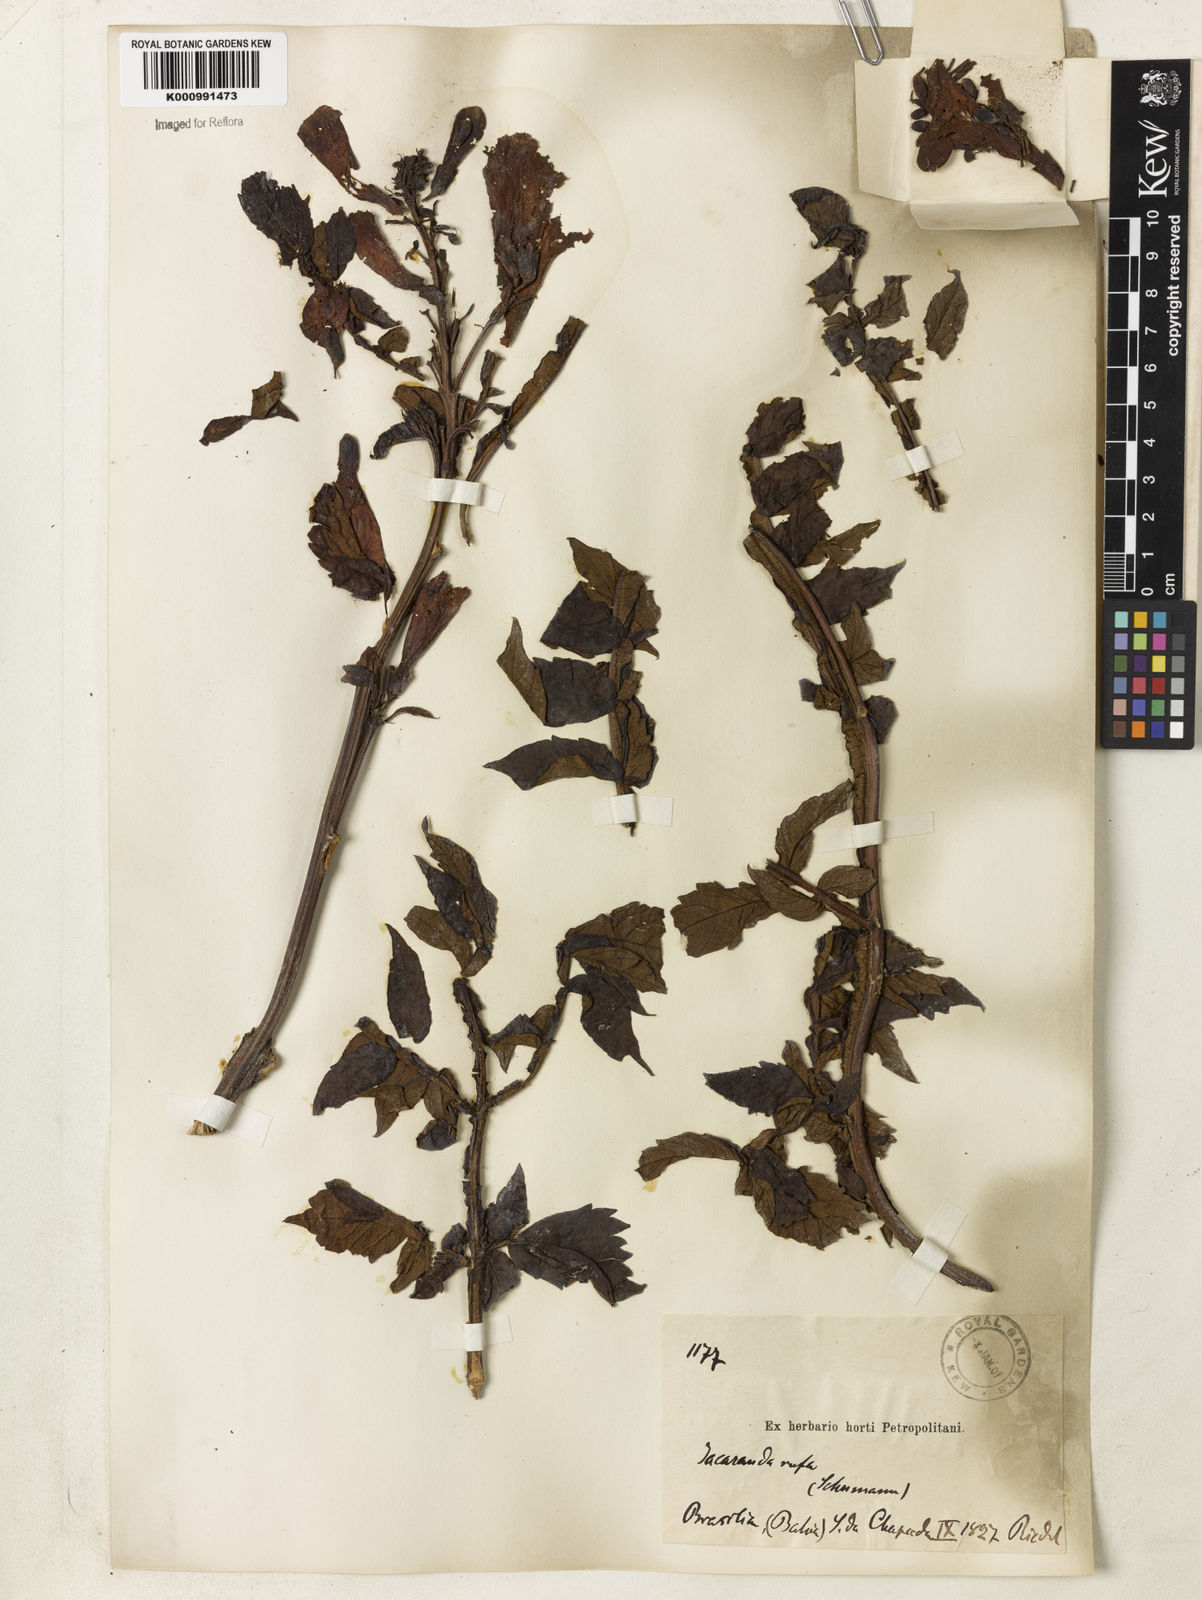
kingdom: Plantae
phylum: Tracheophyta
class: Magnoliopsida
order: Lamiales
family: Bignoniaceae
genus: Jacaranda
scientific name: Jacaranda rufa
